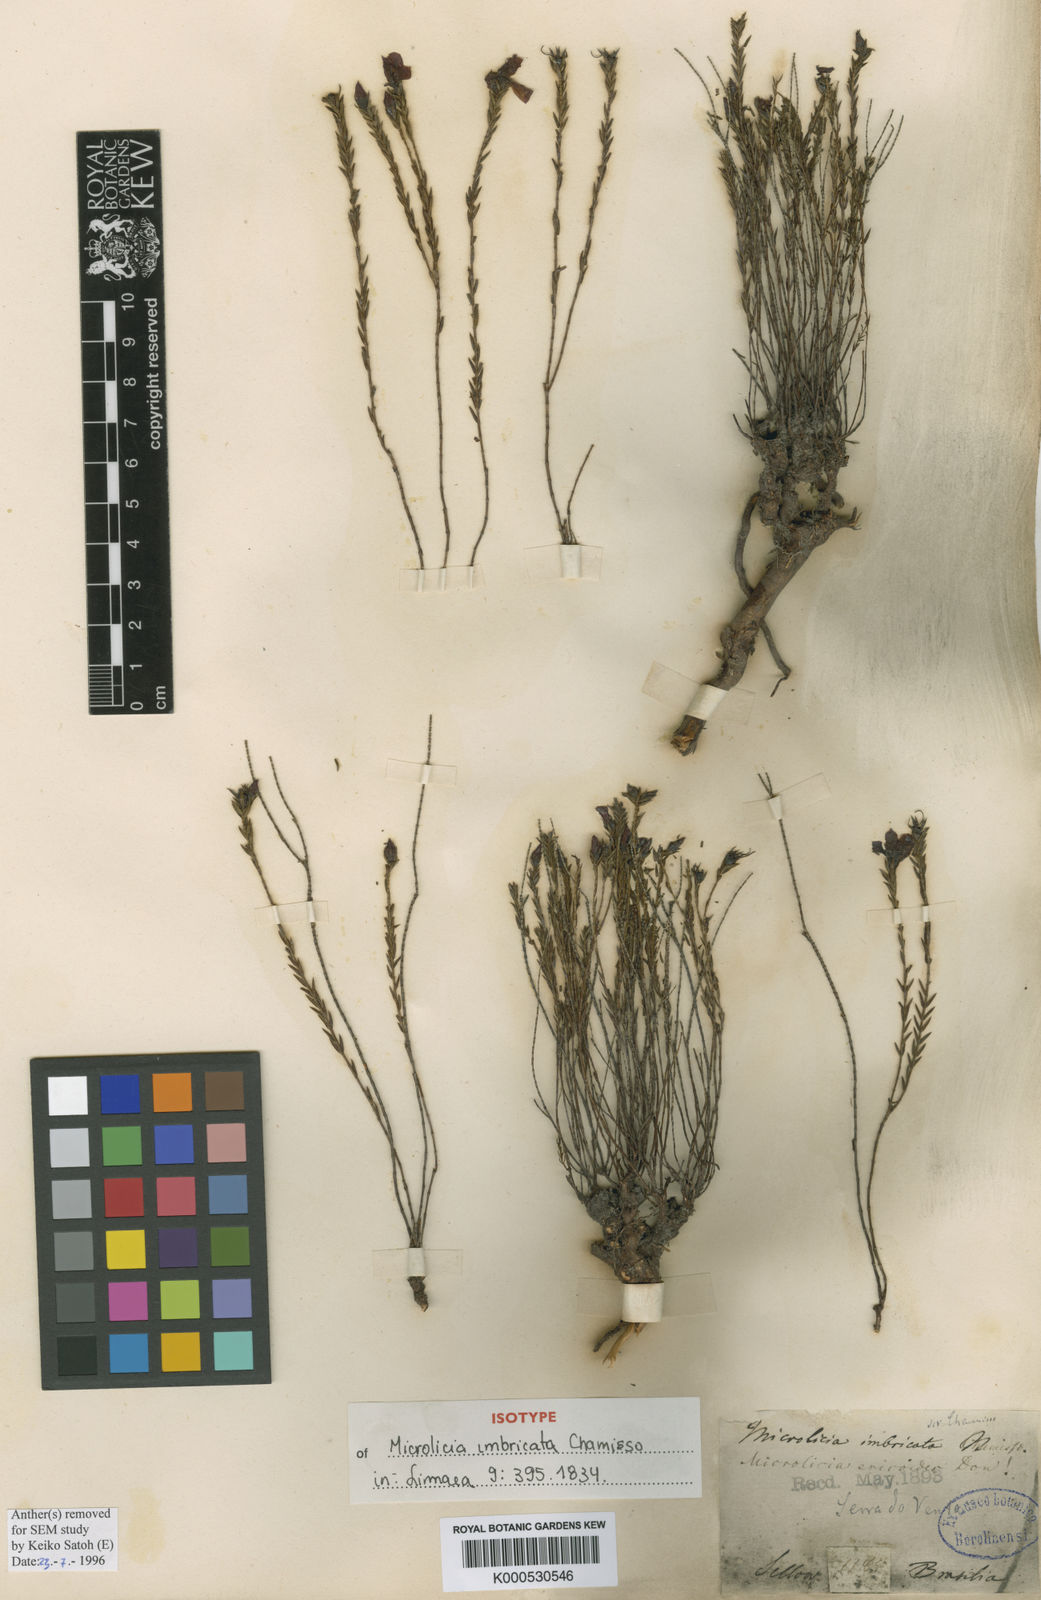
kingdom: Plantae
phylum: Tracheophyta
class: Magnoliopsida
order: Myrtales
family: Melastomataceae
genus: Microlicia
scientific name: Microlicia ericoides
